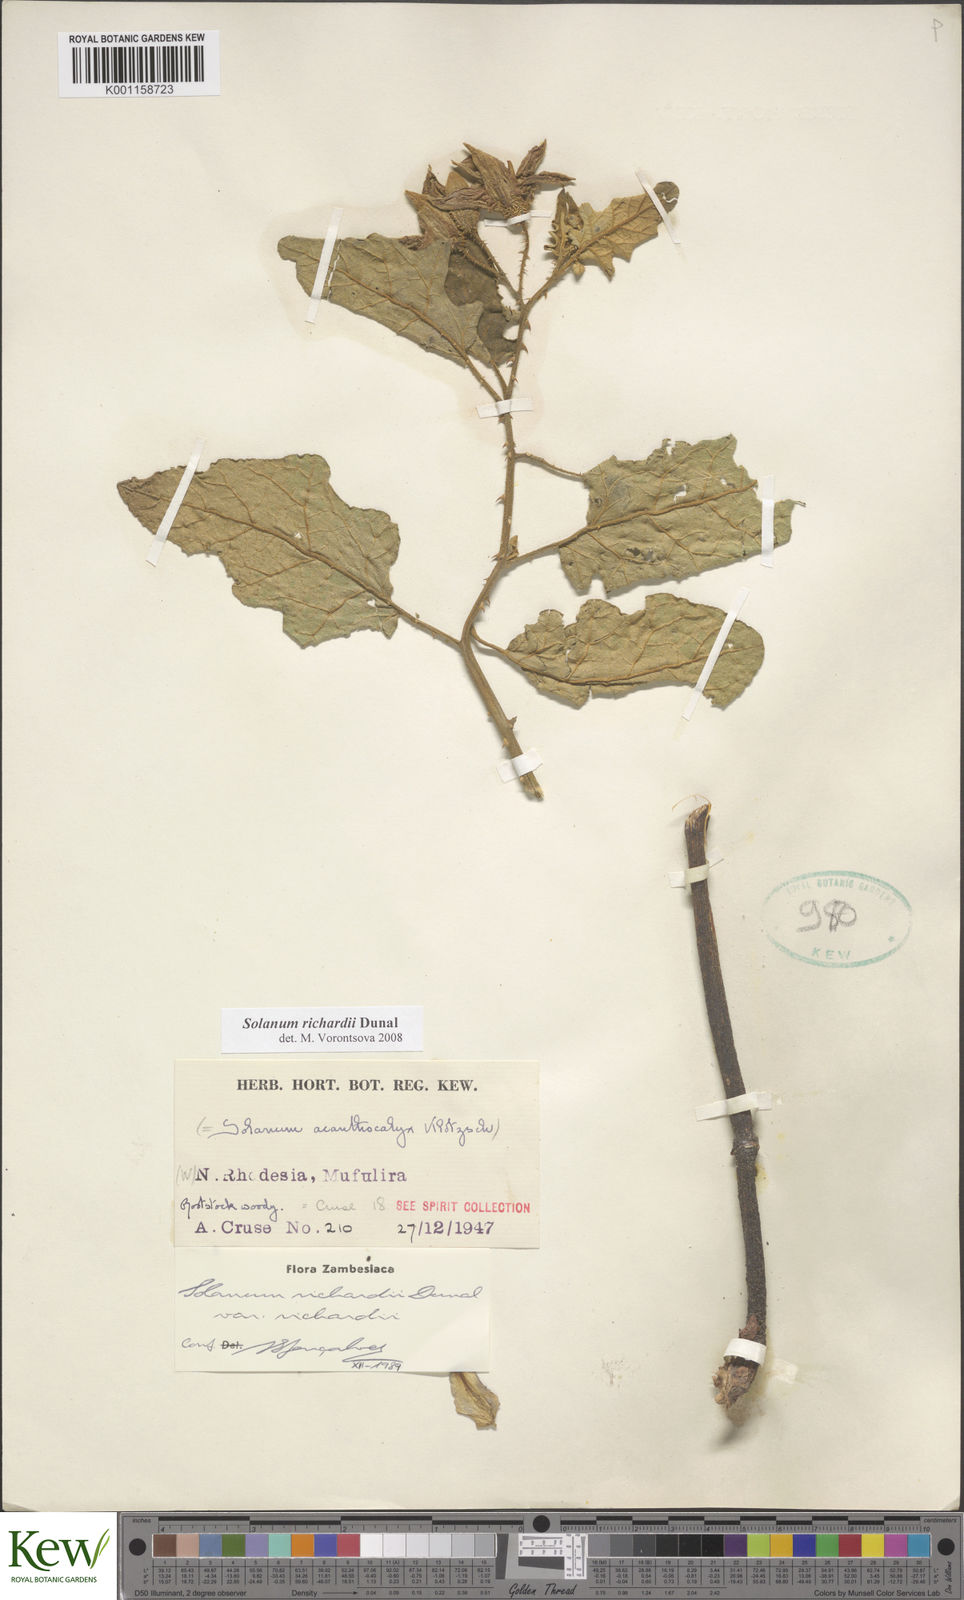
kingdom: Plantae
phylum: Tracheophyta
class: Magnoliopsida
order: Solanales
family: Solanaceae
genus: Solanum
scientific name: Solanum
